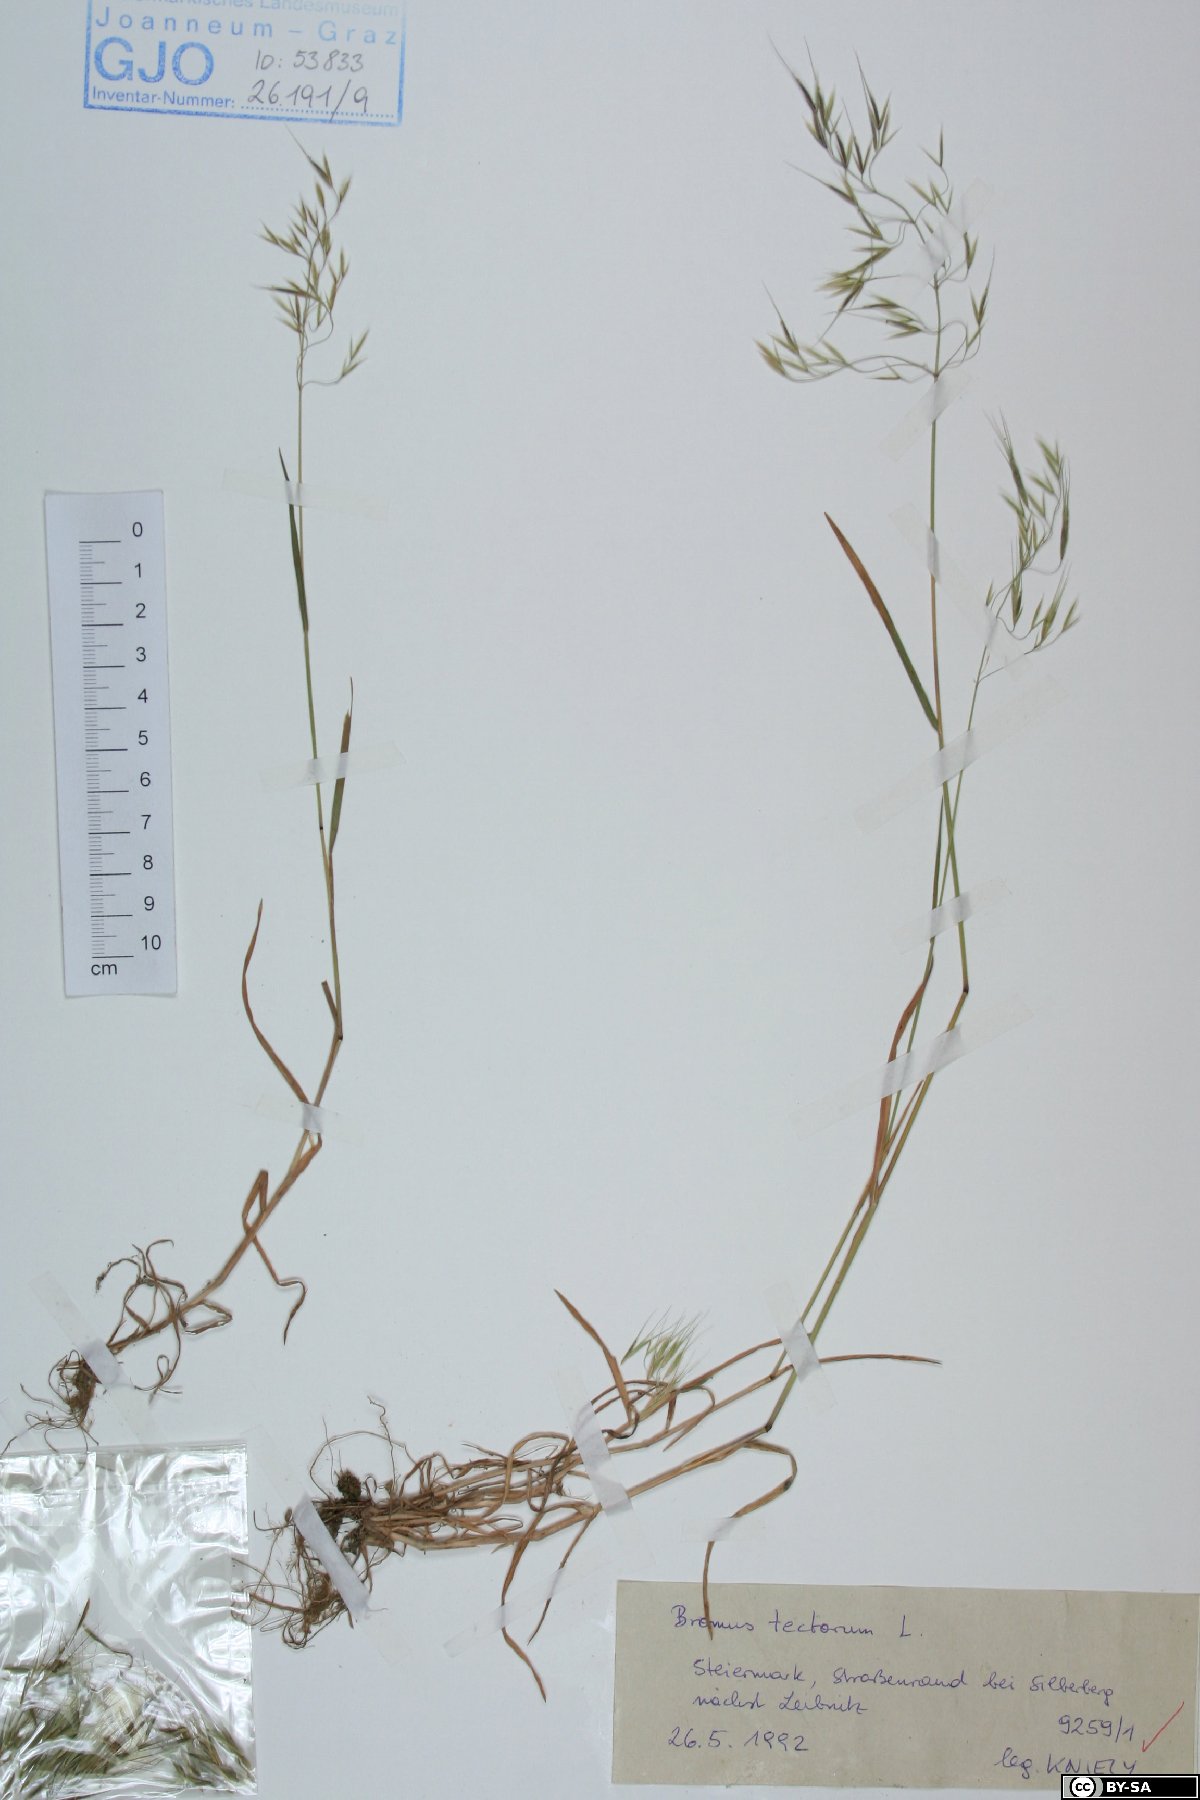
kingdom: Plantae
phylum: Tracheophyta
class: Liliopsida
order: Poales
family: Poaceae
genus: Bromus
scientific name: Bromus tectorum
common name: Cheatgrass
